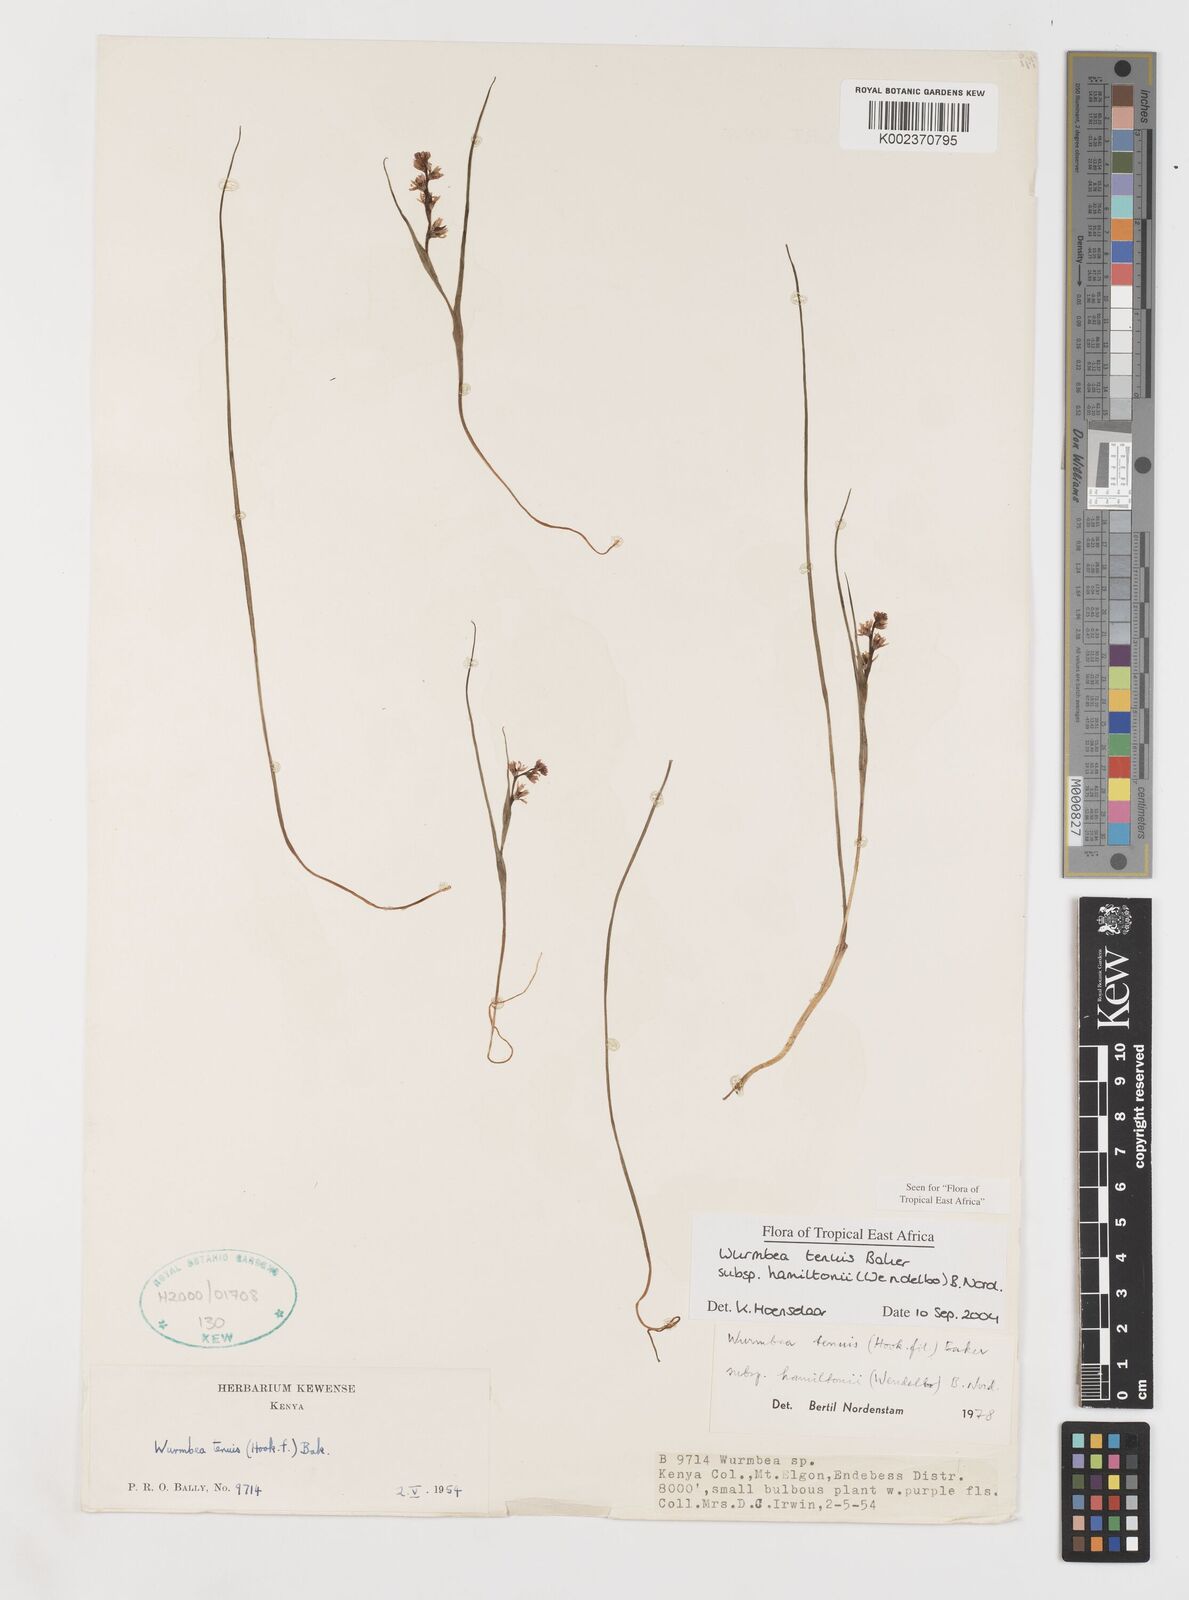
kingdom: Plantae
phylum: Tracheophyta
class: Liliopsida
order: Liliales
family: Colchicaceae
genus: Wurmbea
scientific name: Wurmbea tenuis
